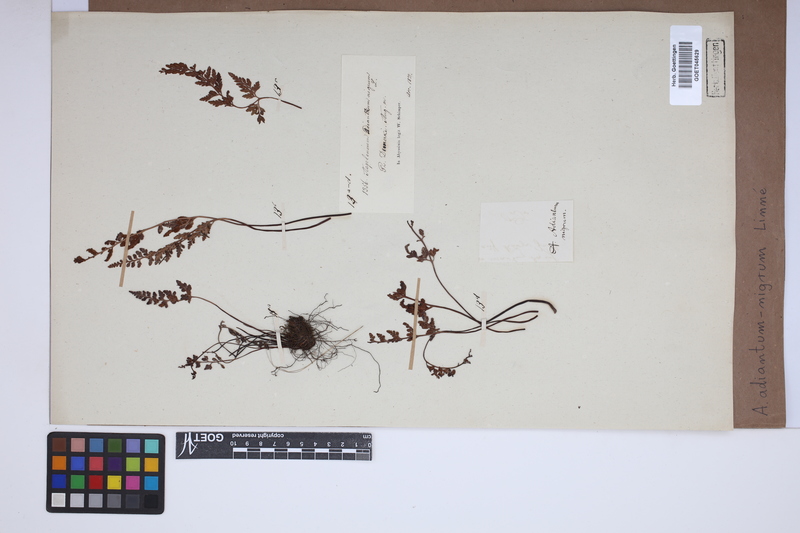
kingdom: Plantae
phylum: Tracheophyta
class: Polypodiopsida
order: Polypodiales
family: Aspleniaceae
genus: Asplenium
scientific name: Asplenium adiantum-nigrum
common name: Black spleenwort
